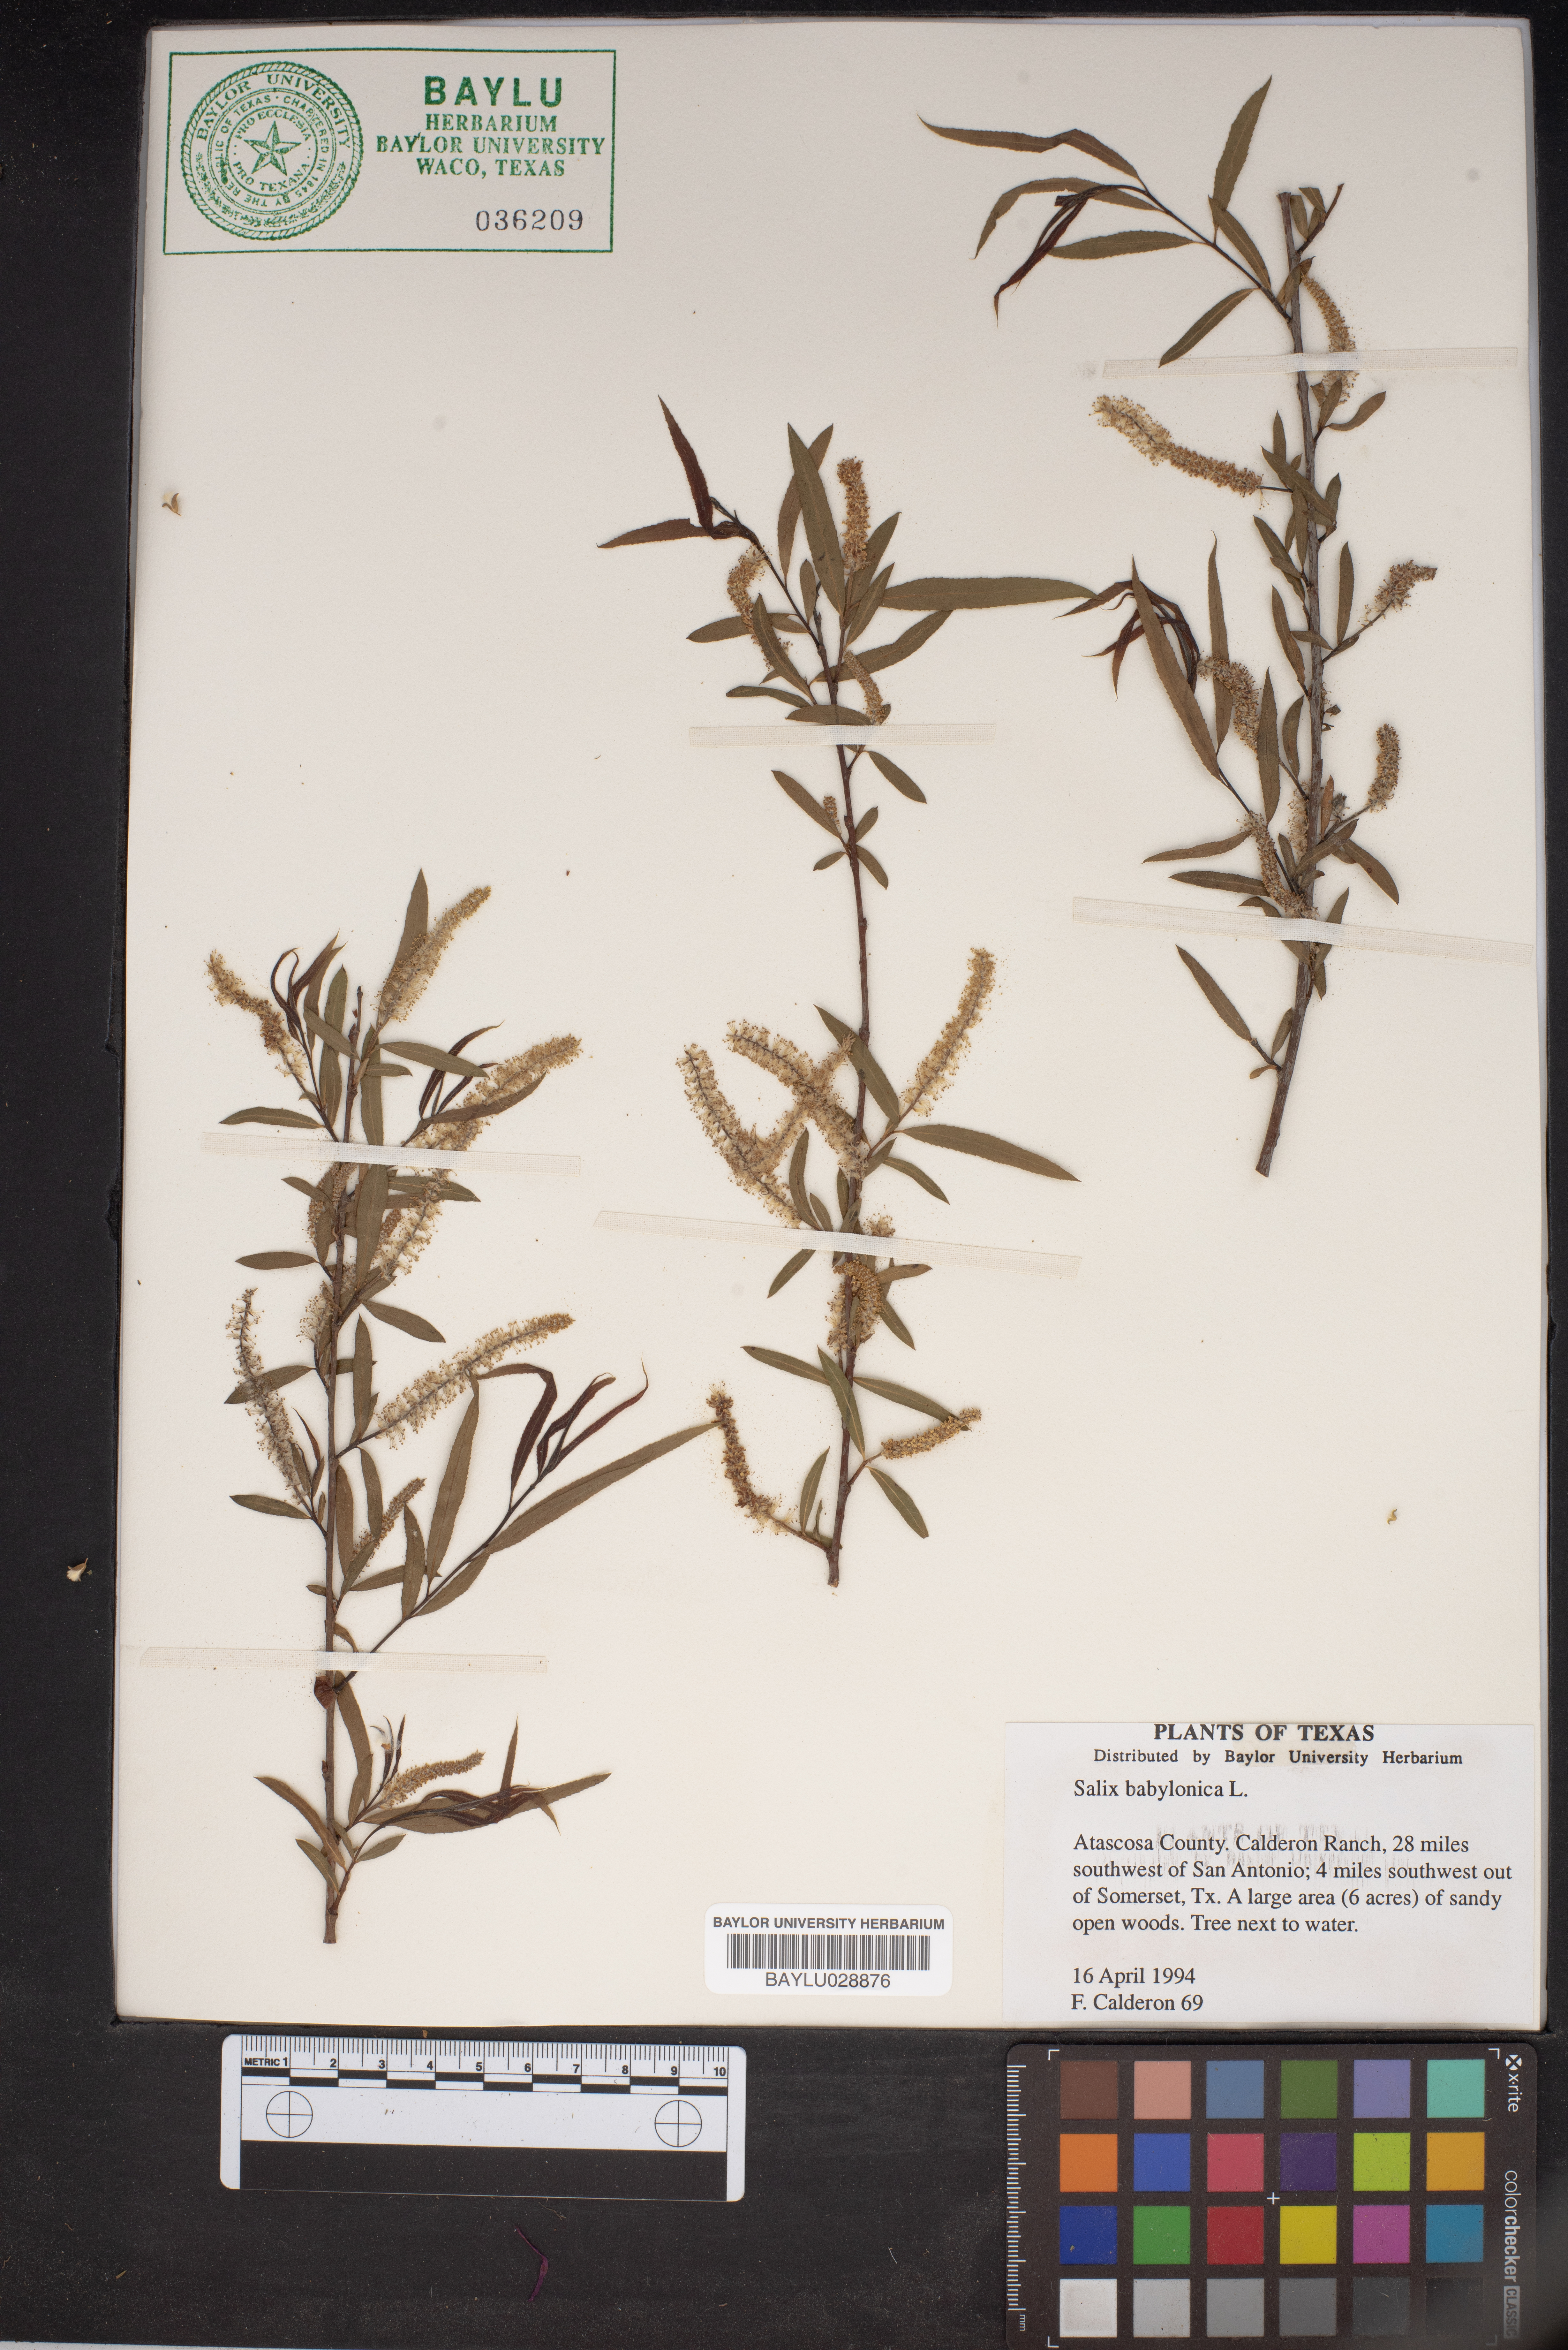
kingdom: Plantae
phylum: Tracheophyta
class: Magnoliopsida
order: Malpighiales
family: Salicaceae
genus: Salix
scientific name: Salix babylonica
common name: Weeping willow
